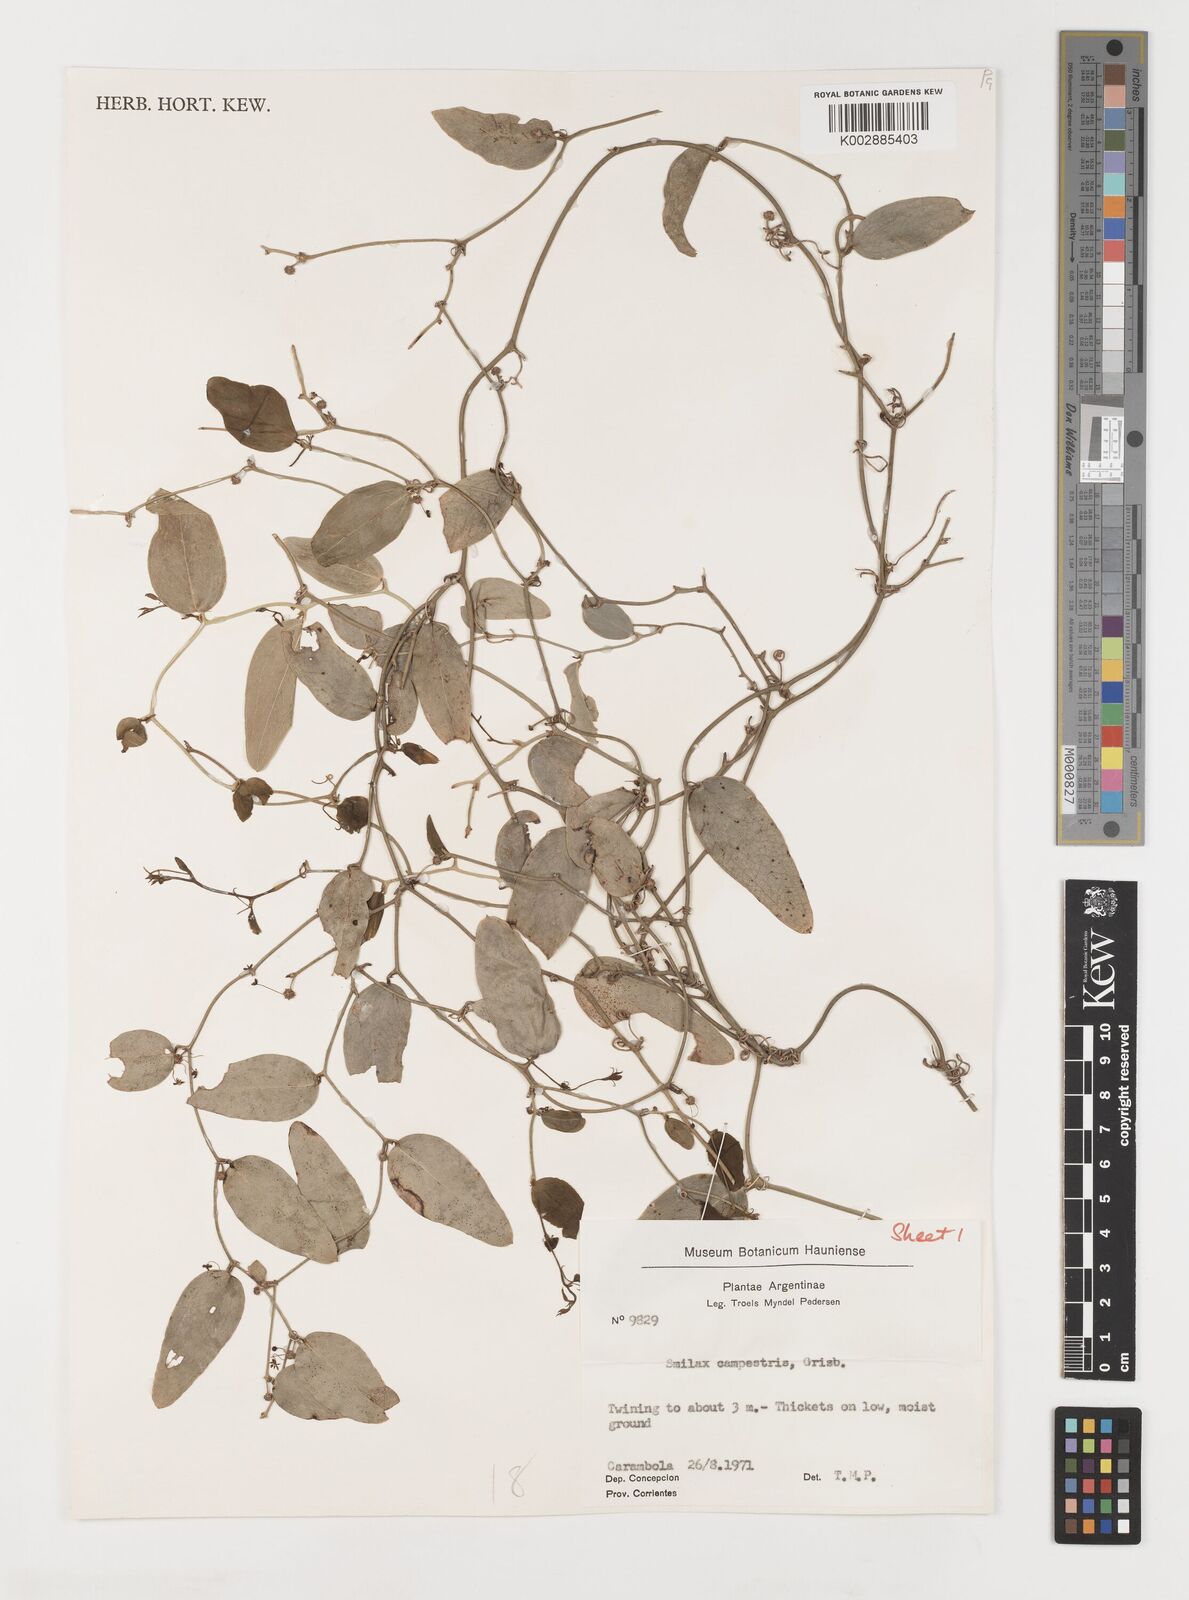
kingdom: Plantae
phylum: Tracheophyta
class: Liliopsida
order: Liliales
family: Smilacaceae
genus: Smilax
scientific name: Smilax campestris
